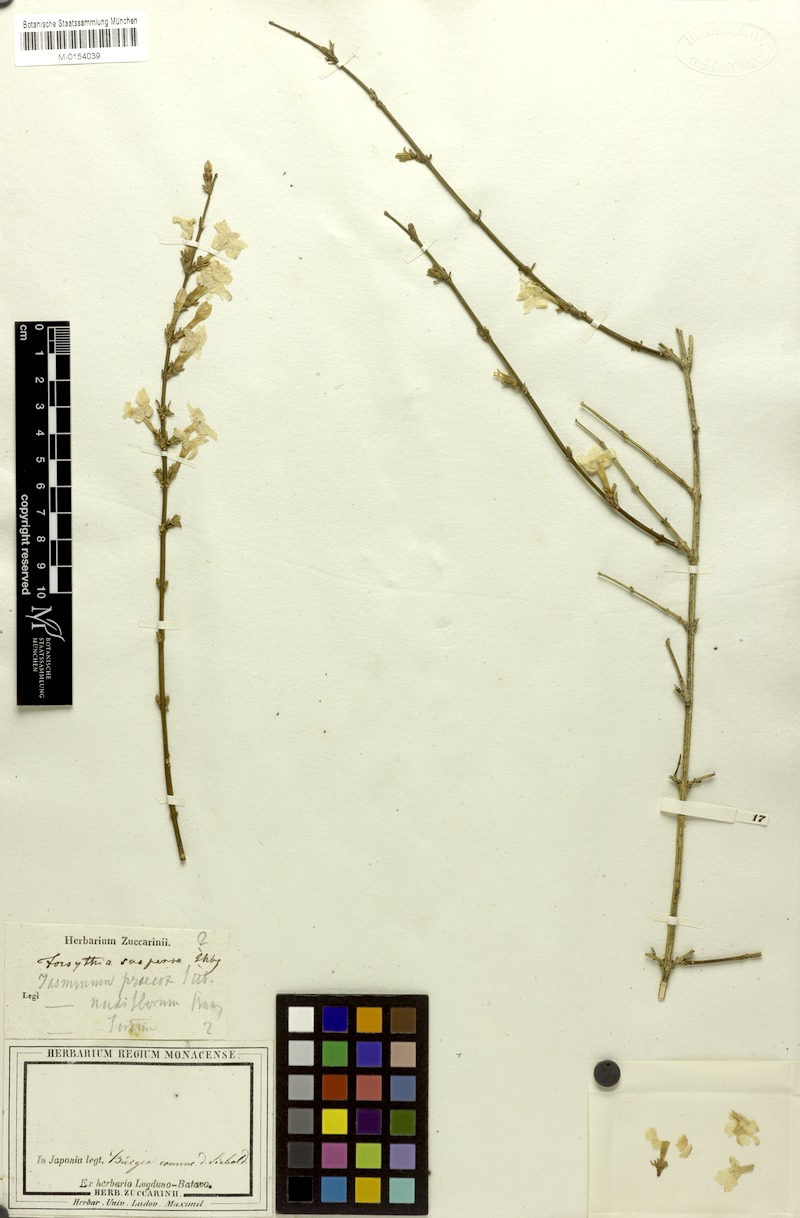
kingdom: Plantae
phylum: Tracheophyta
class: Magnoliopsida
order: Lamiales
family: Oleaceae
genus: Forsythia
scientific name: Forsythia suspensa
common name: Weeping forsythia
